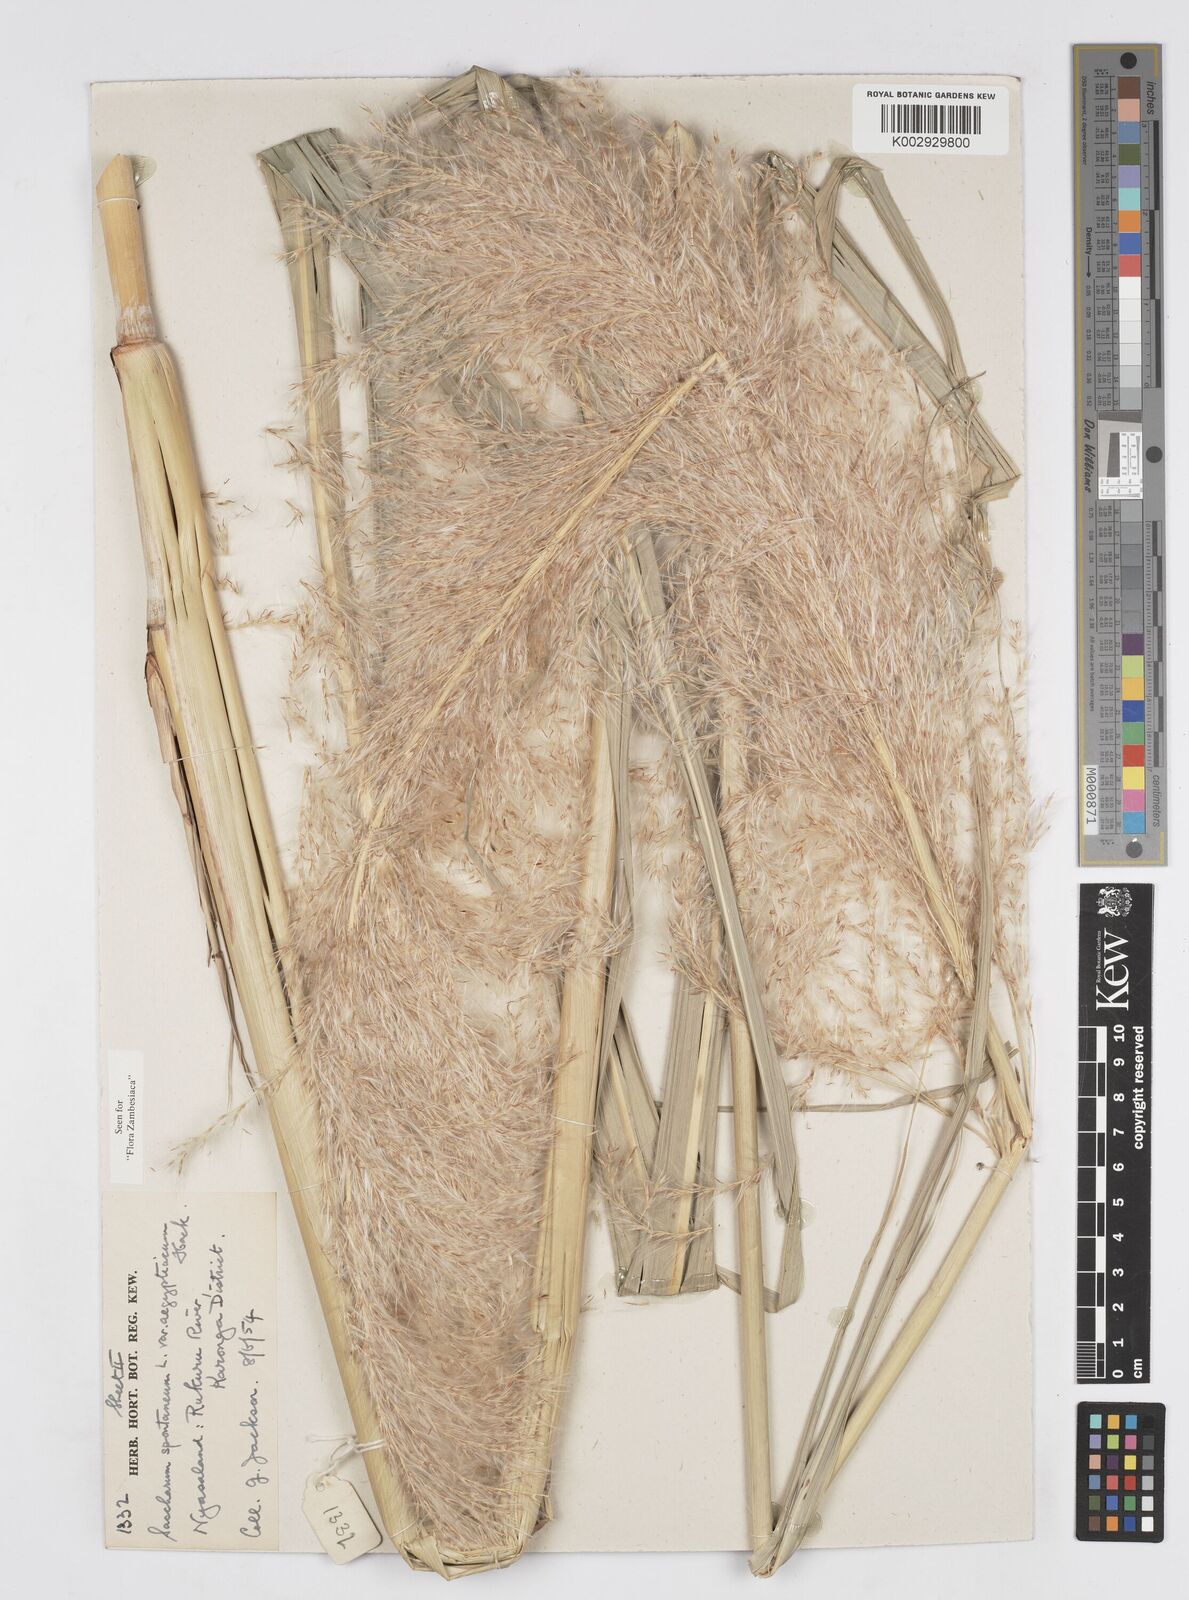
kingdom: Plantae
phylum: Tracheophyta
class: Liliopsida
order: Poales
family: Poaceae
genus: Saccharum
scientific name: Saccharum spontaneum
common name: Wild sugarcane
